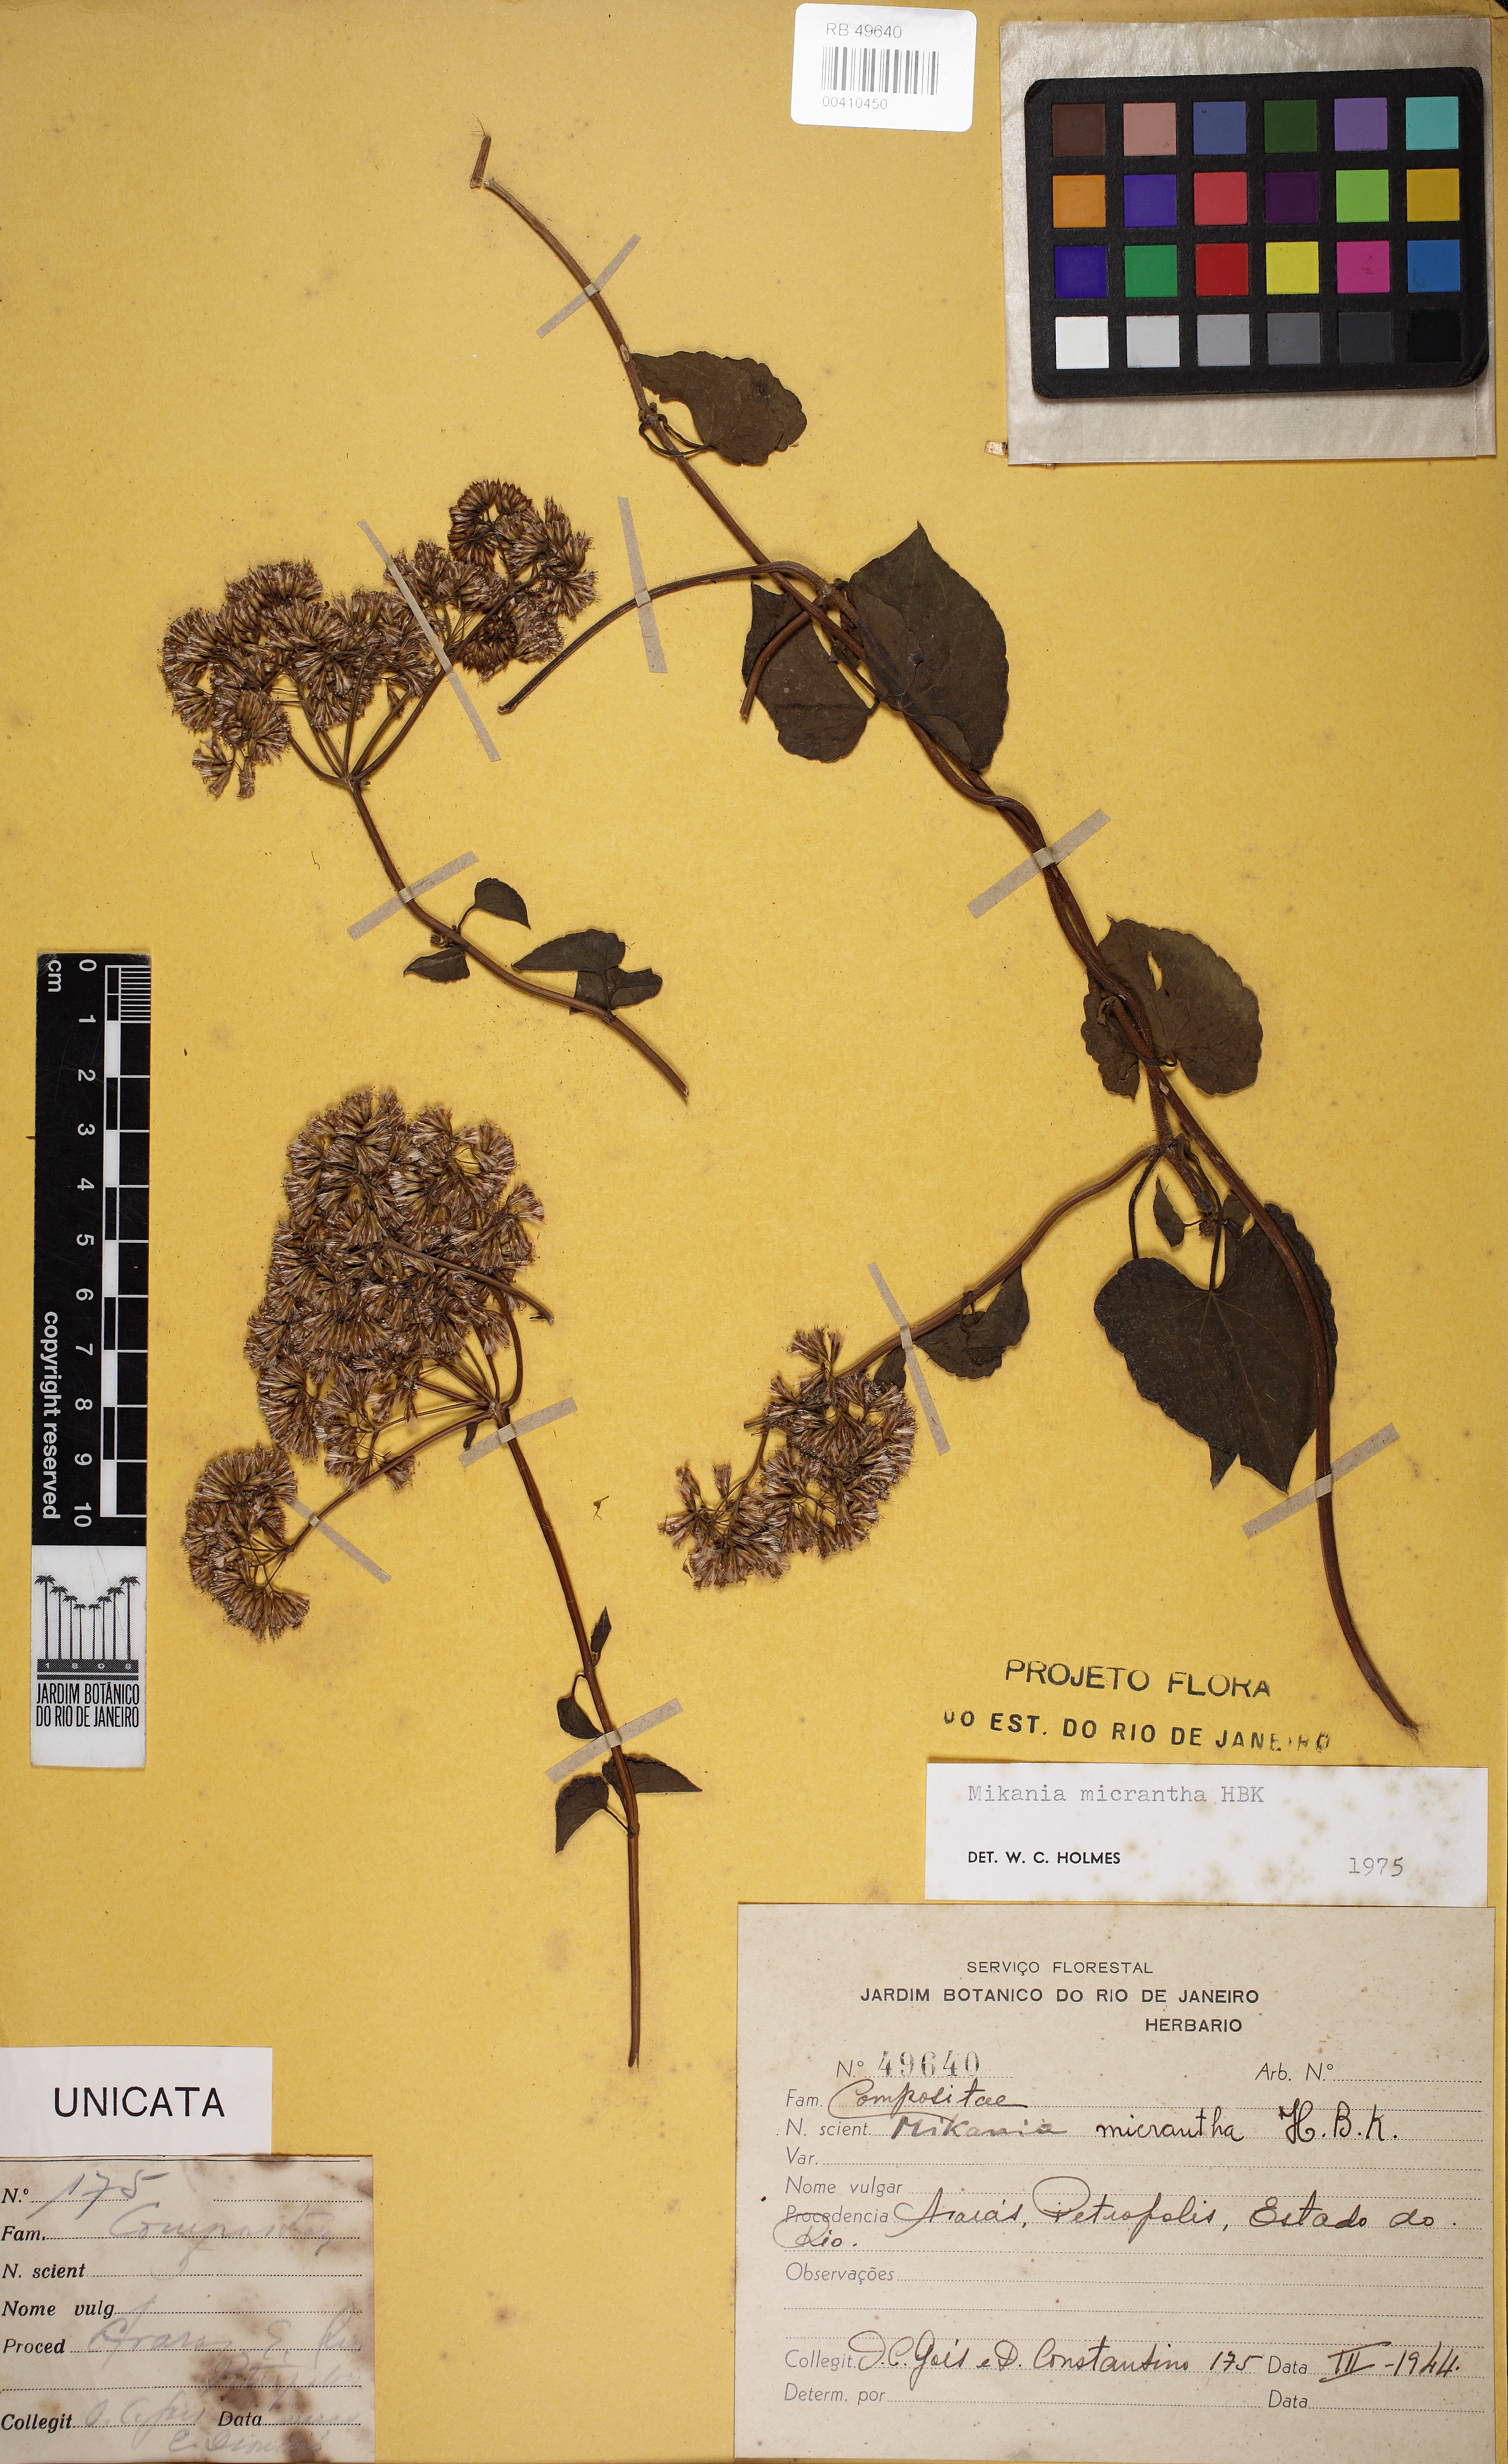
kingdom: Plantae
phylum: Tracheophyta
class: Magnoliopsida
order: Asterales
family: Asteraceae
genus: Mikania
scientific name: Mikania micrantha
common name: Mile-a-minute
